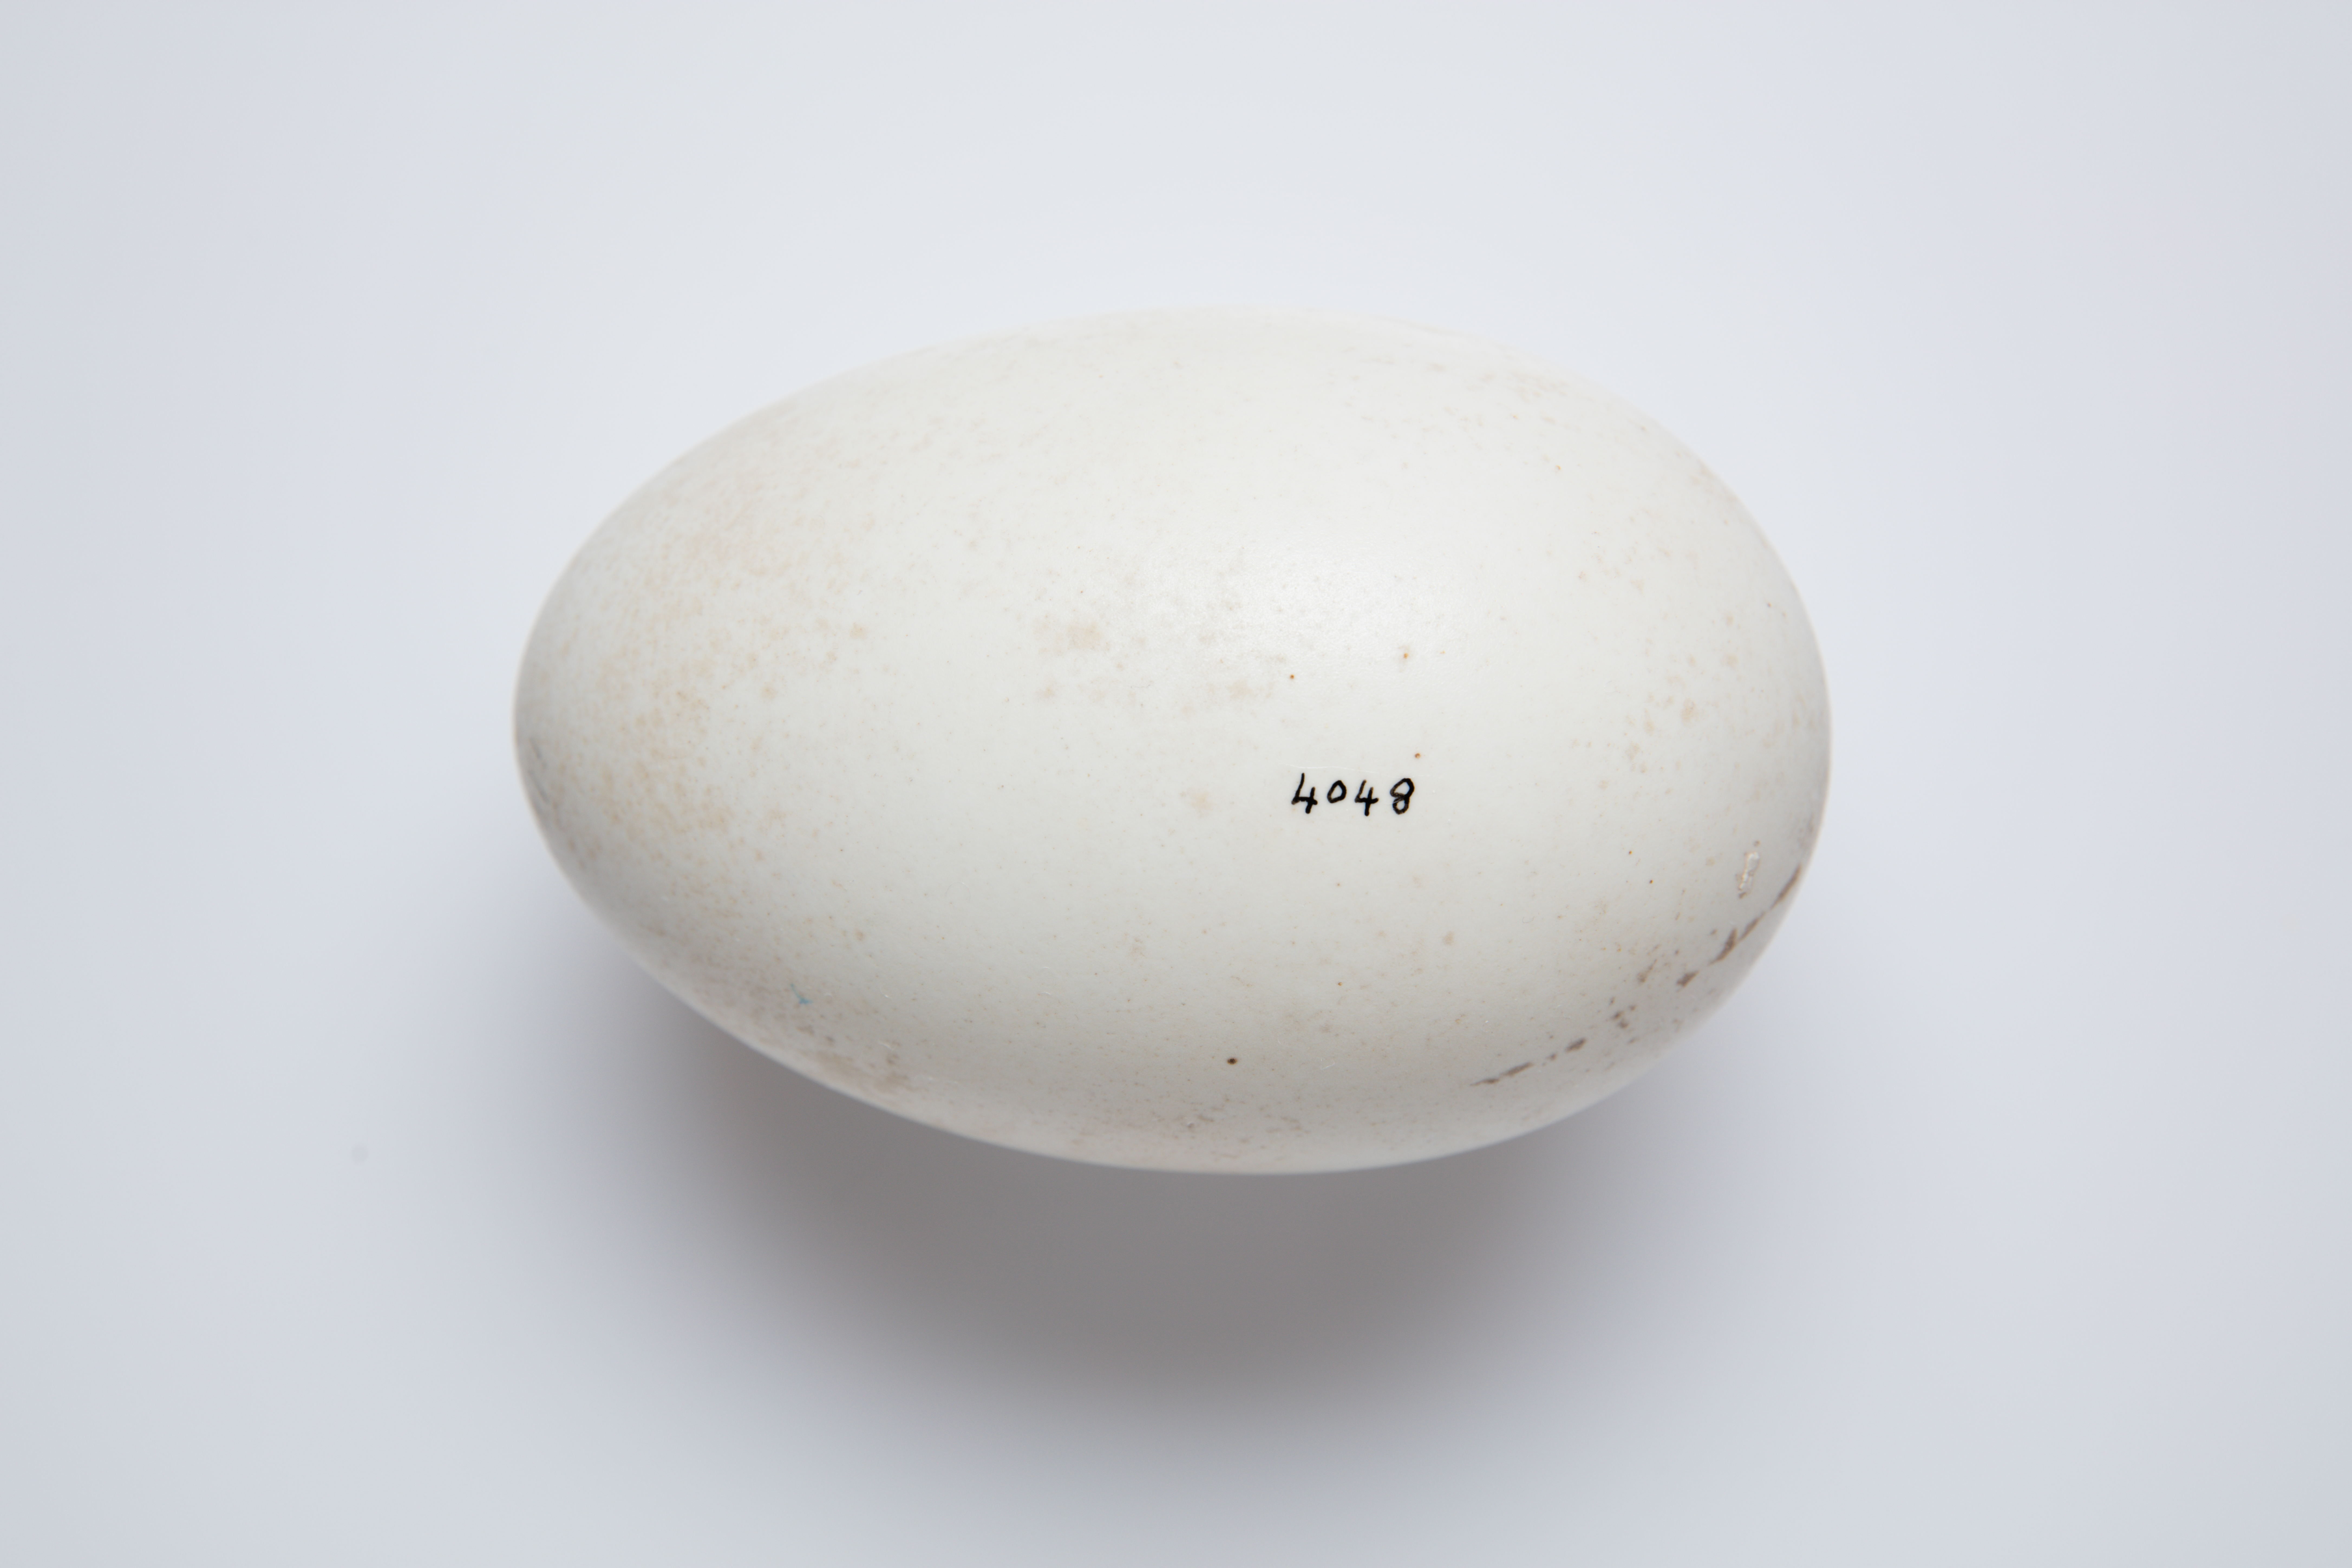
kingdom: Animalia
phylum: Chordata
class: Aves
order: Apterygiformes
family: Apterygidae
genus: Apteryx
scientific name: Apteryx
